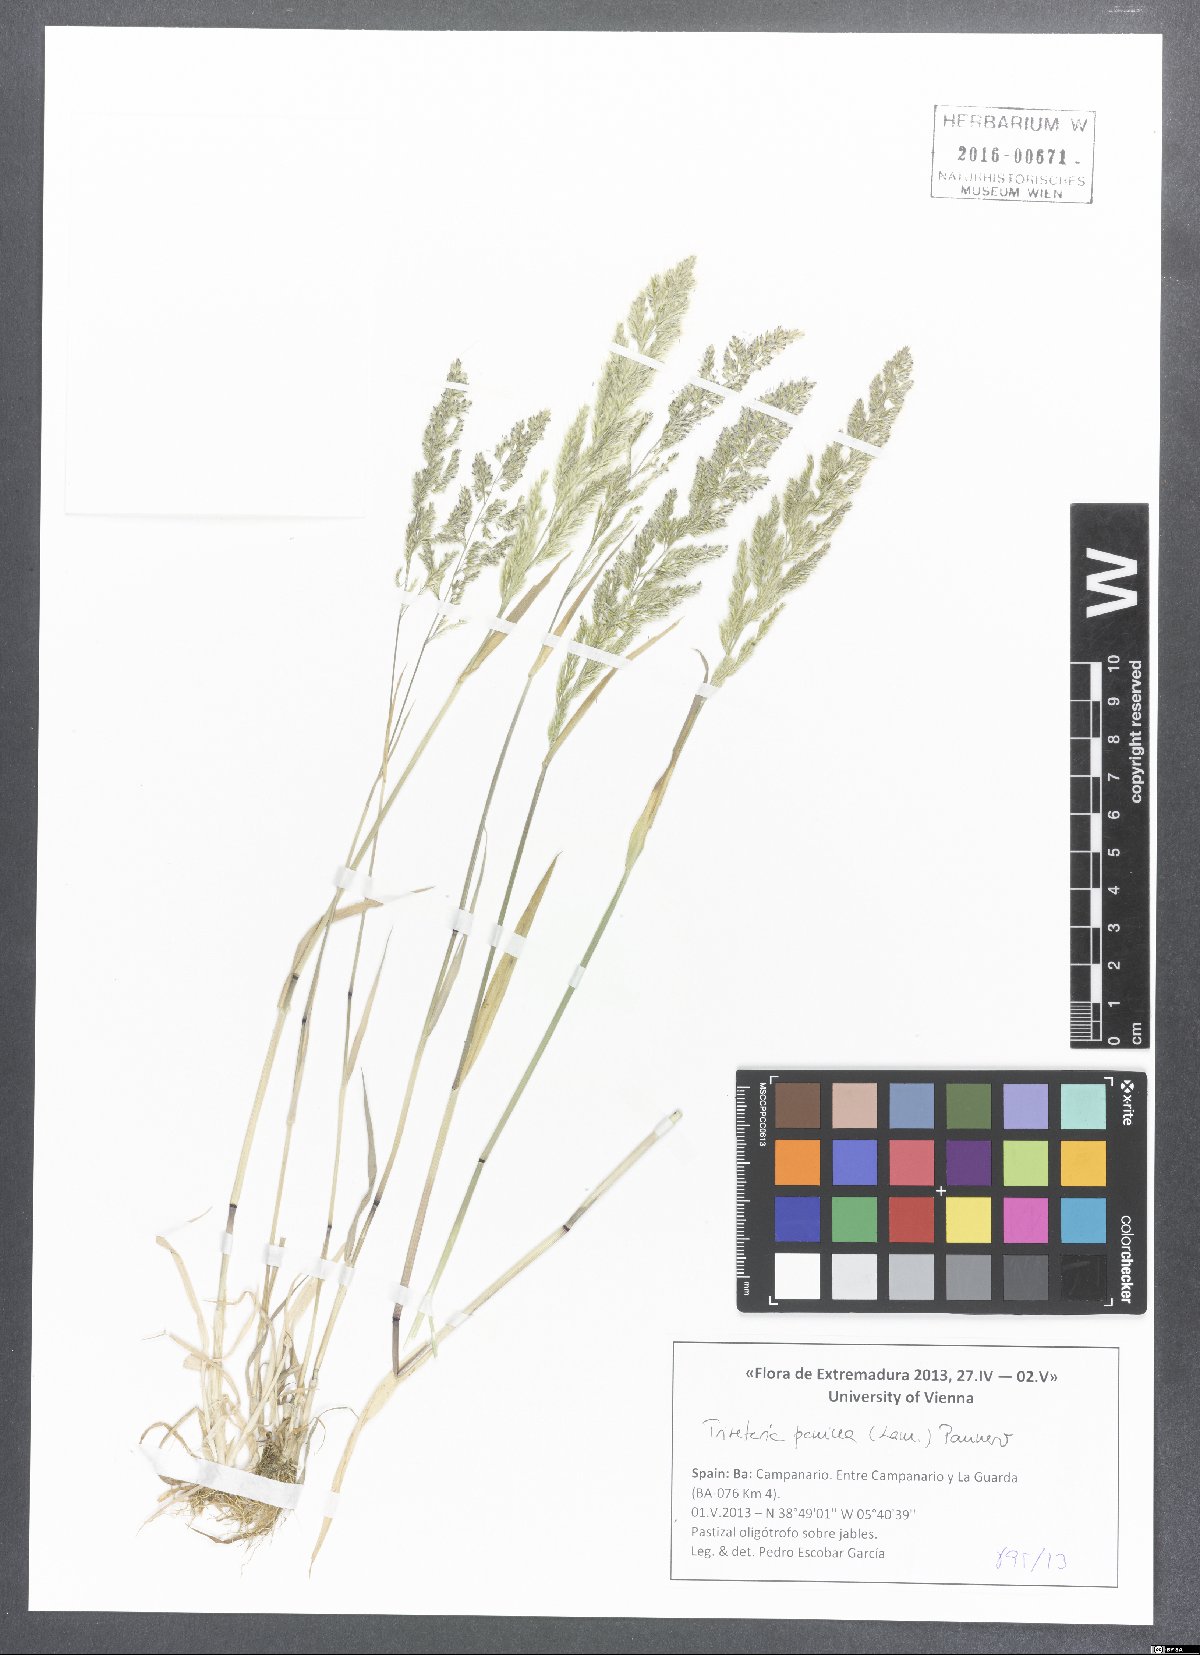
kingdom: Plantae
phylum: Tracheophyta
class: Liliopsida
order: Poales
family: Poaceae
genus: Trisetaria
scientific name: Trisetaria panicea
